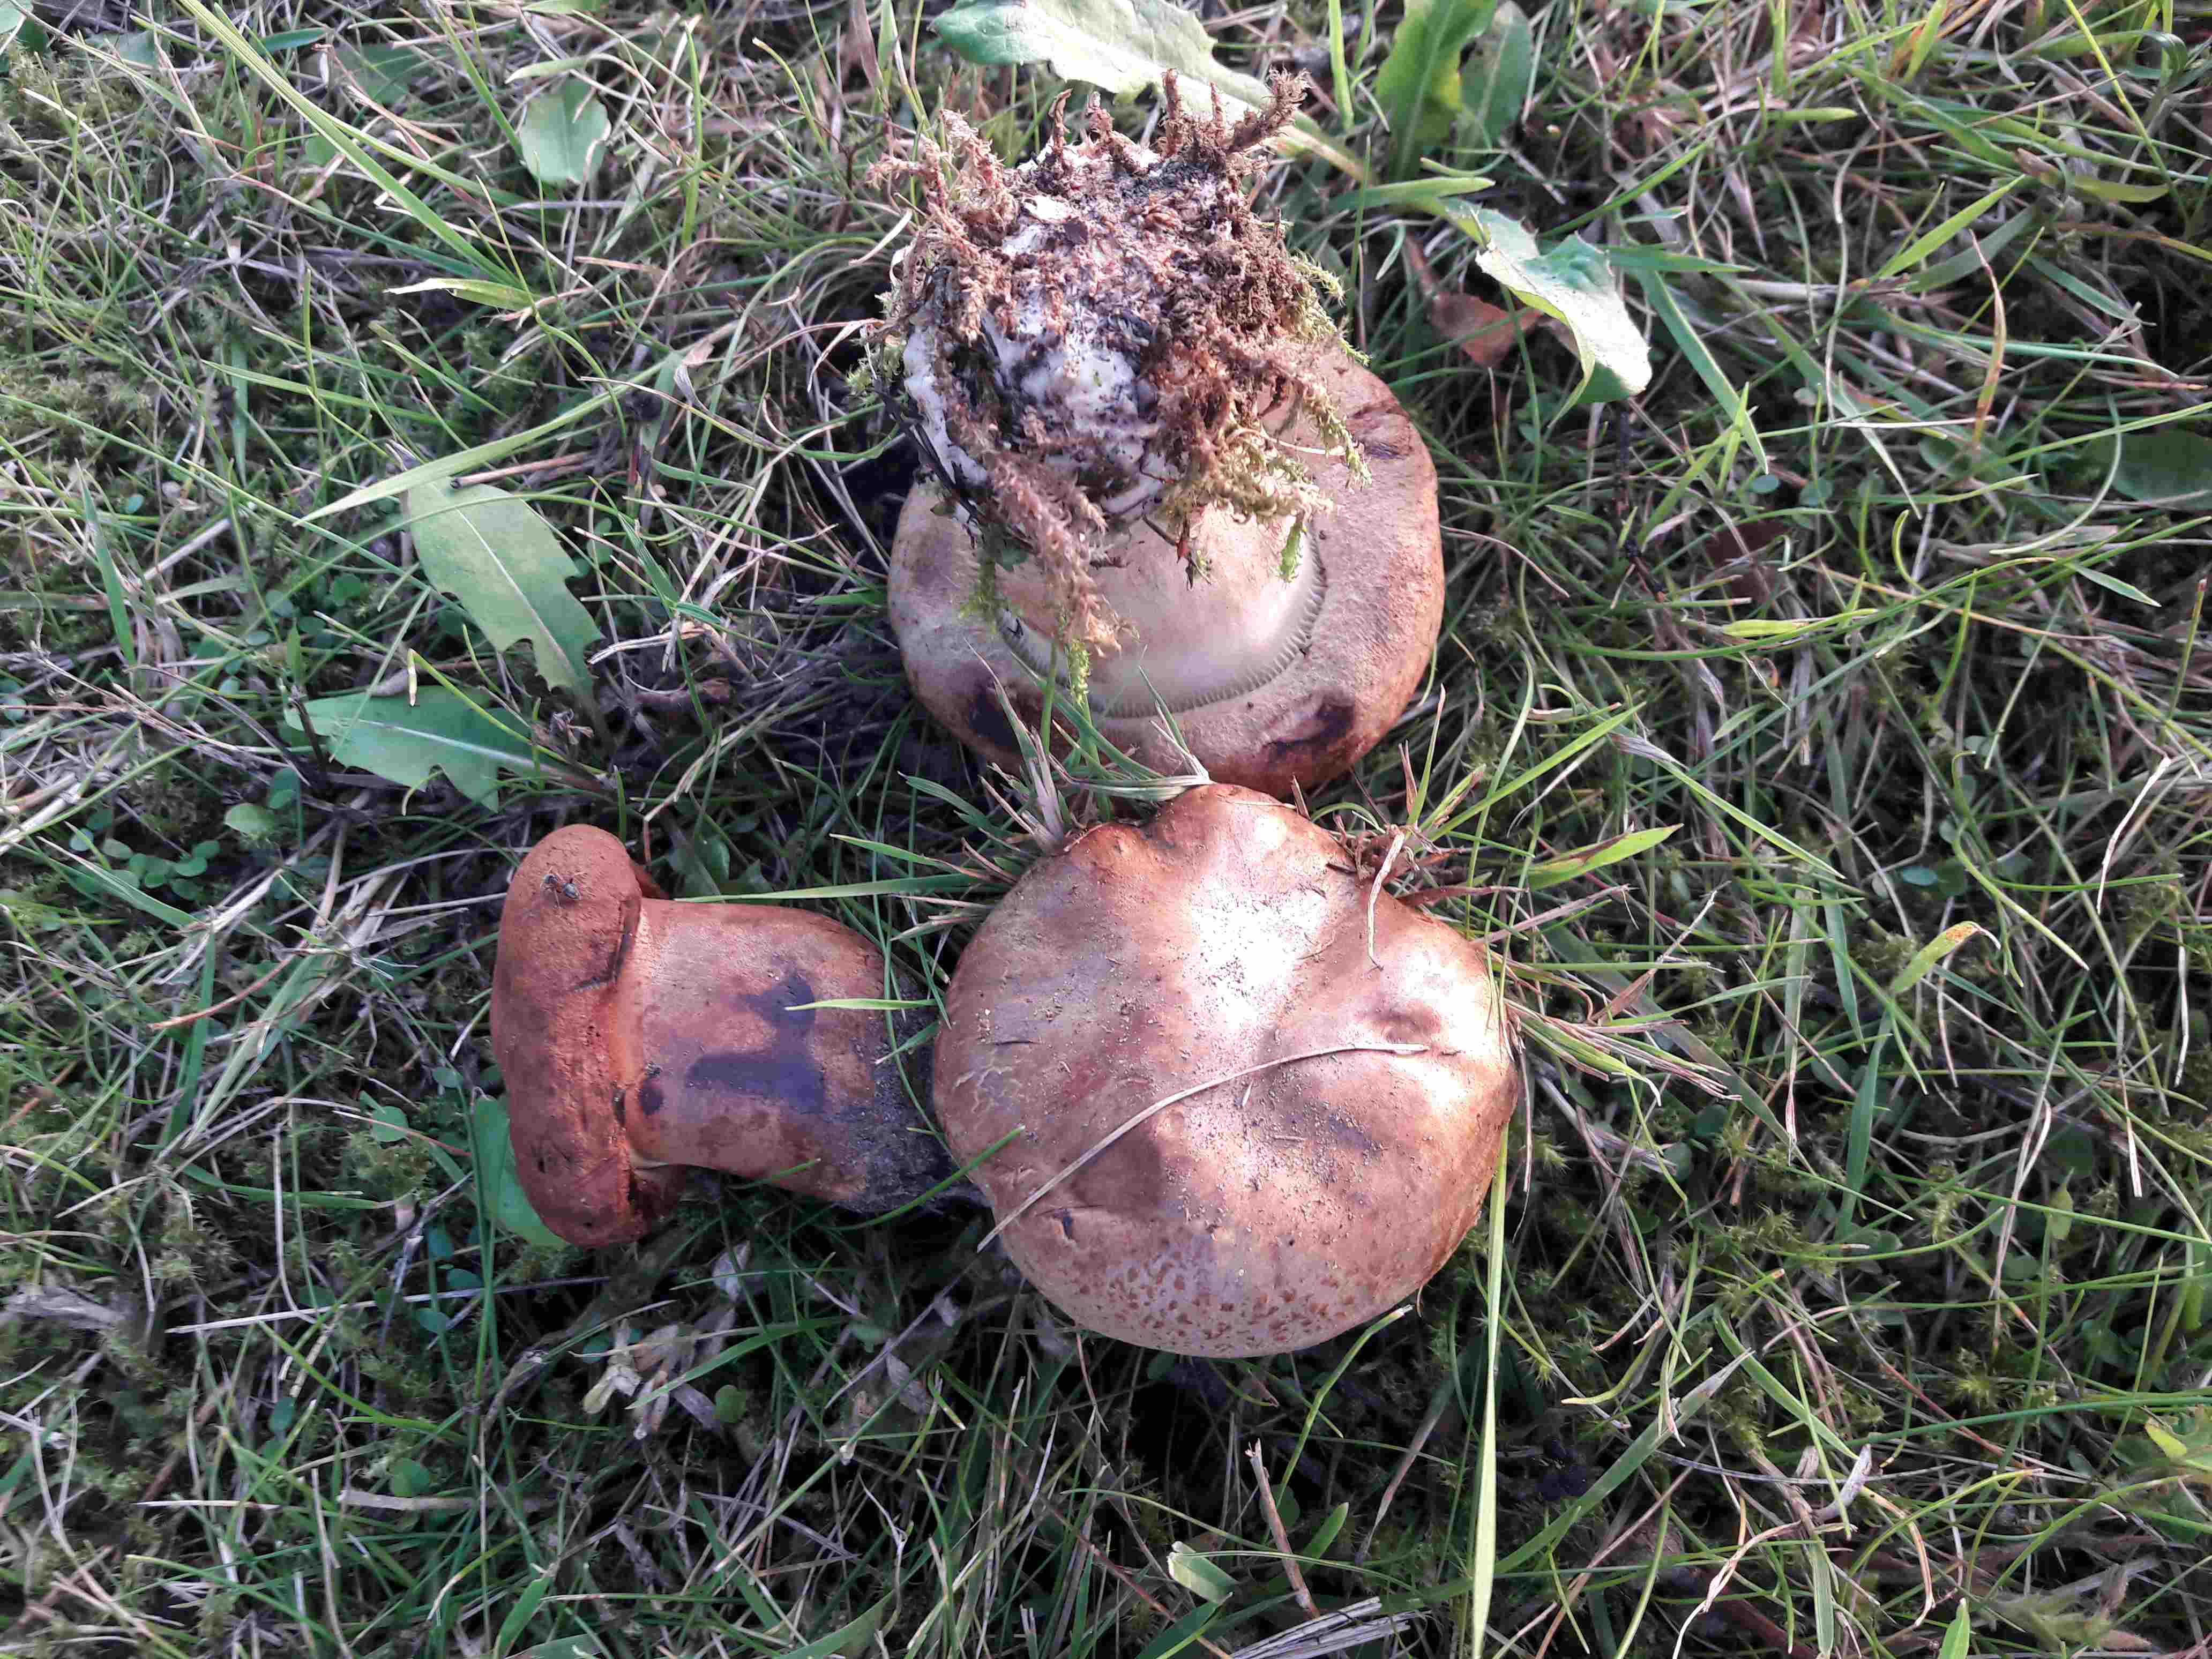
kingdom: Fungi
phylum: Basidiomycota
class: Agaricomycetes
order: Boletales
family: Paxillaceae
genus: Paxillus
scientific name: Paxillus
